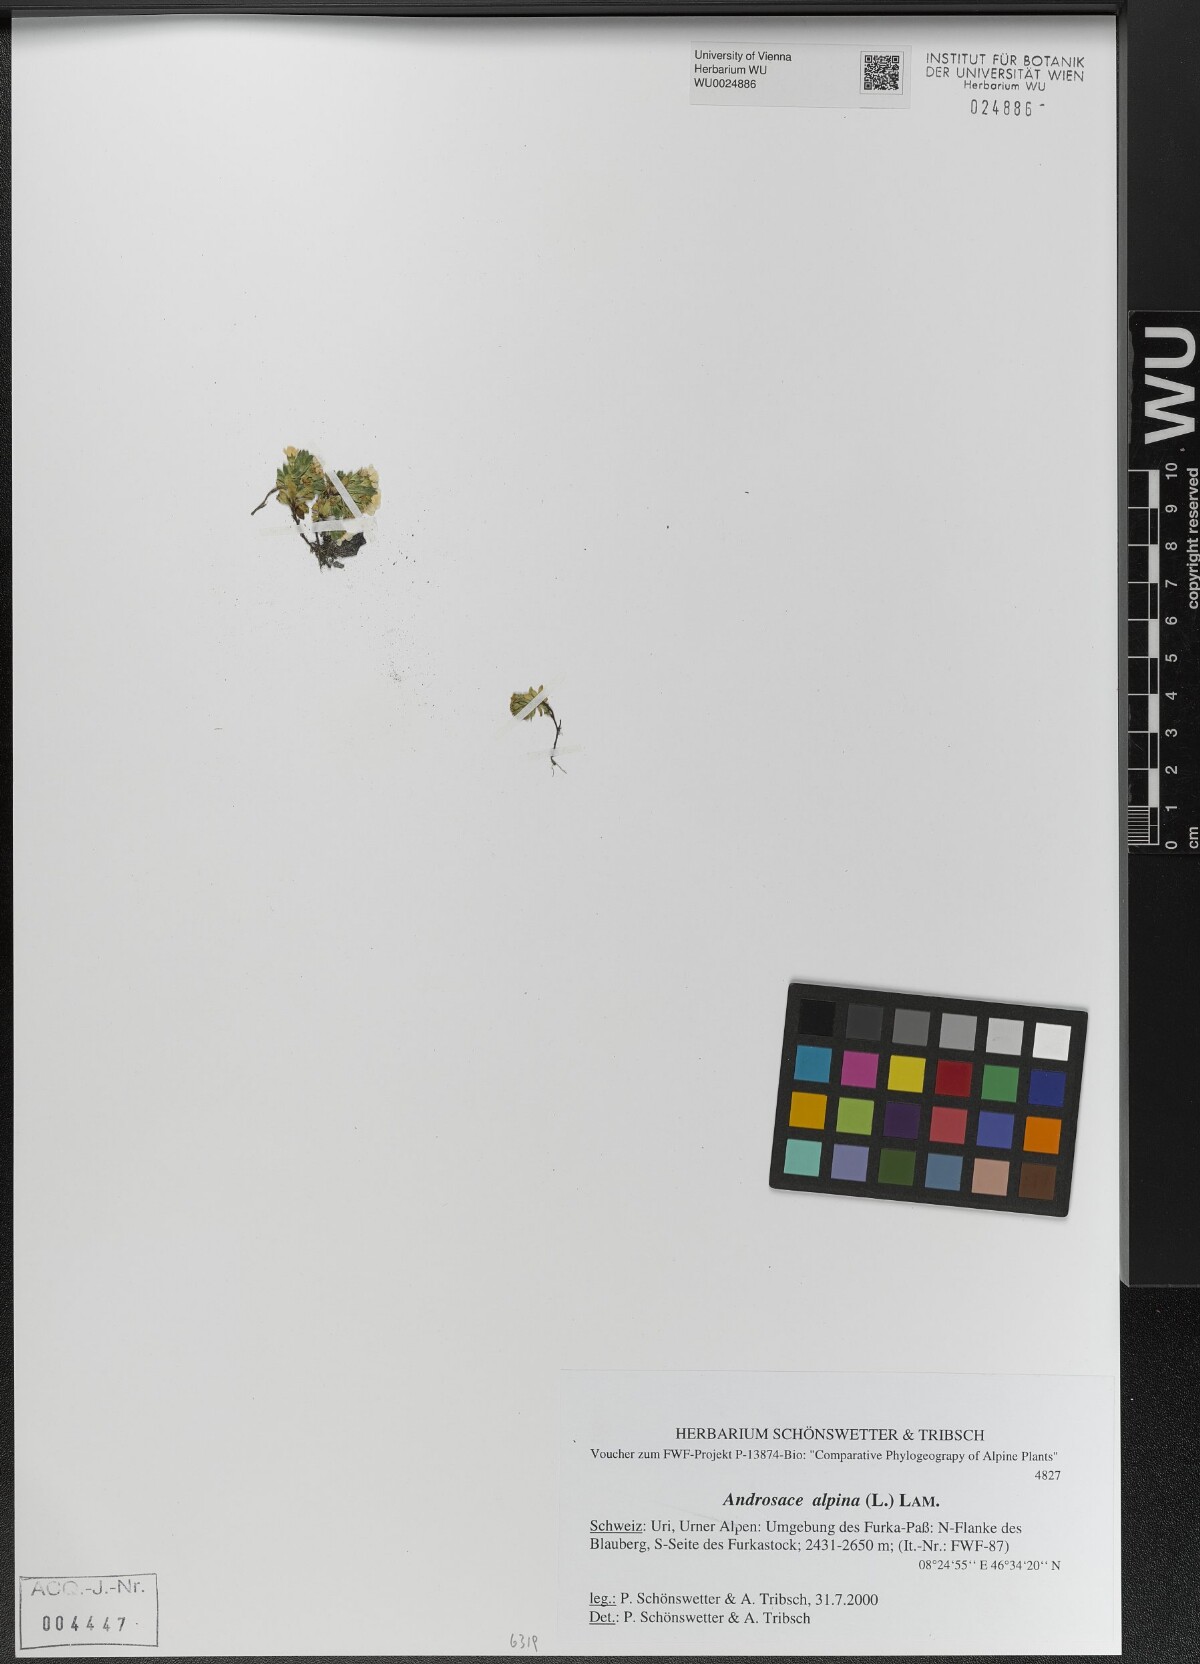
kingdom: Plantae
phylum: Tracheophyta
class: Magnoliopsida
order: Ericales
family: Primulaceae
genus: Androsace
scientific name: Androsace alpina
